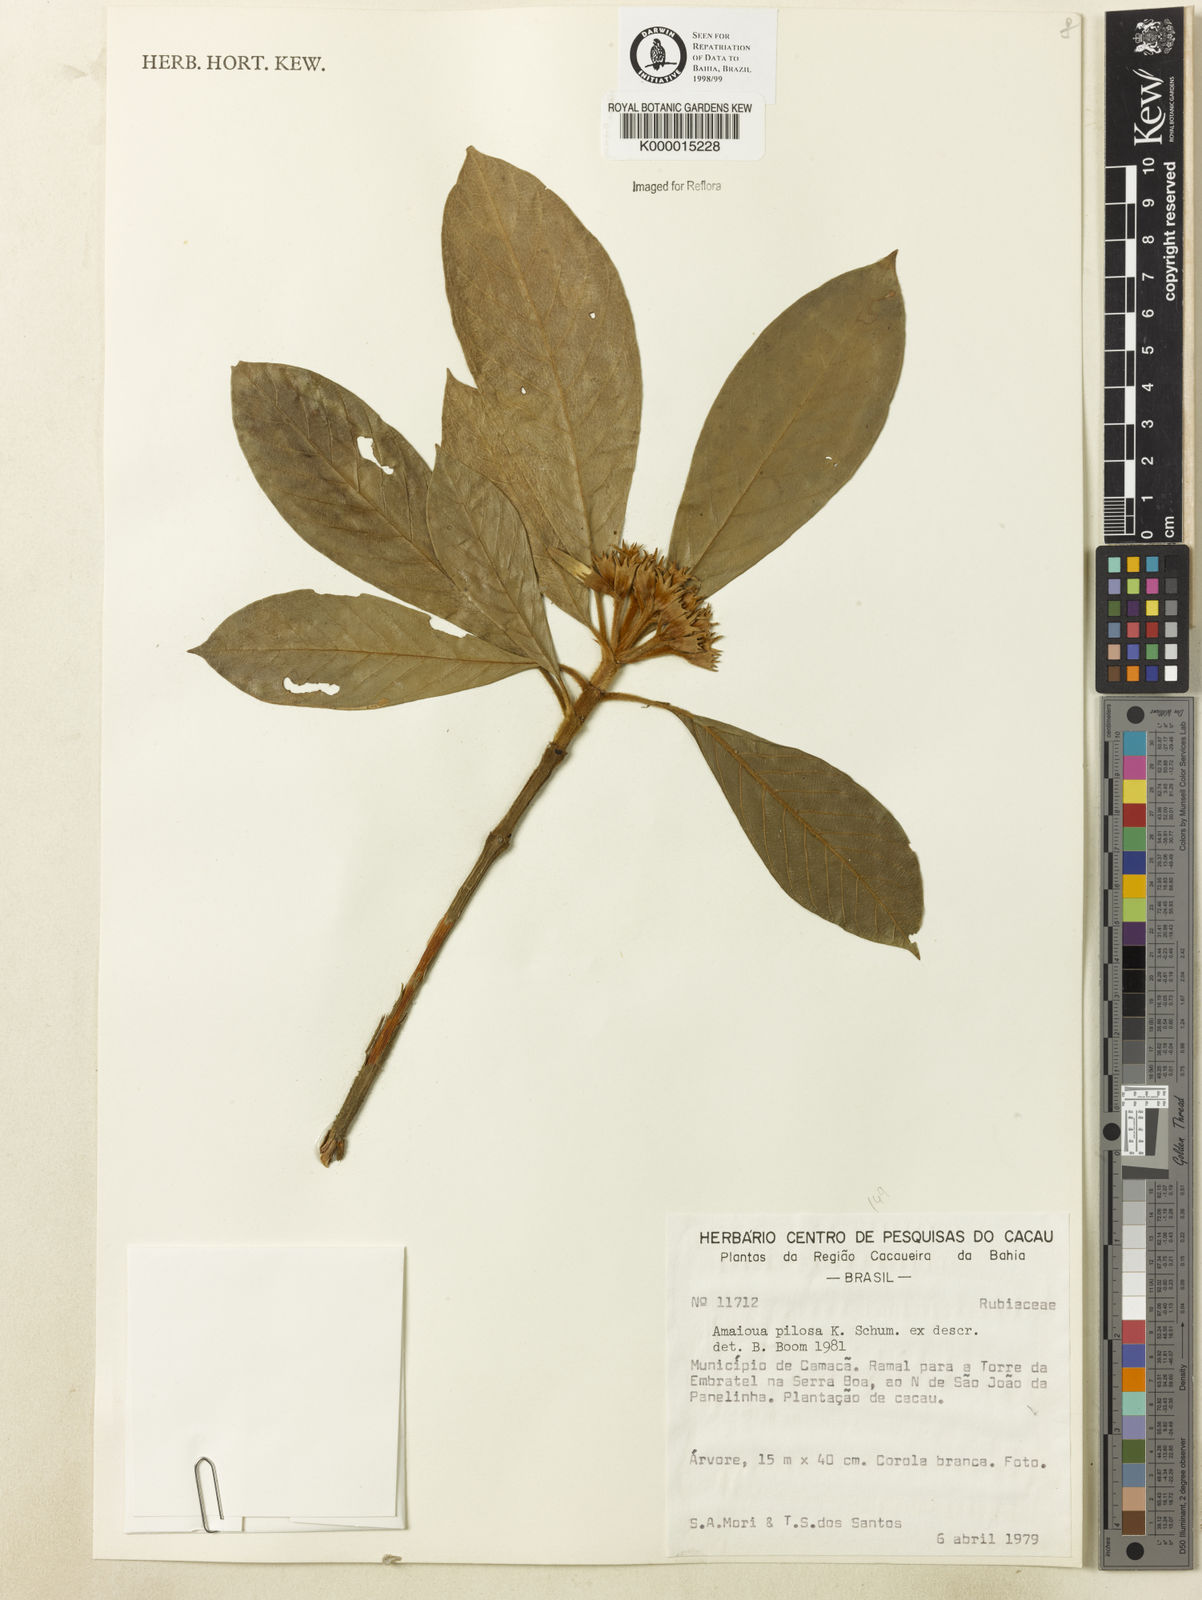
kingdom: Plantae
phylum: Tracheophyta
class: Magnoliopsida
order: Gentianales
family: Rubiaceae
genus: Amaioua
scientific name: Amaioua pilosa
